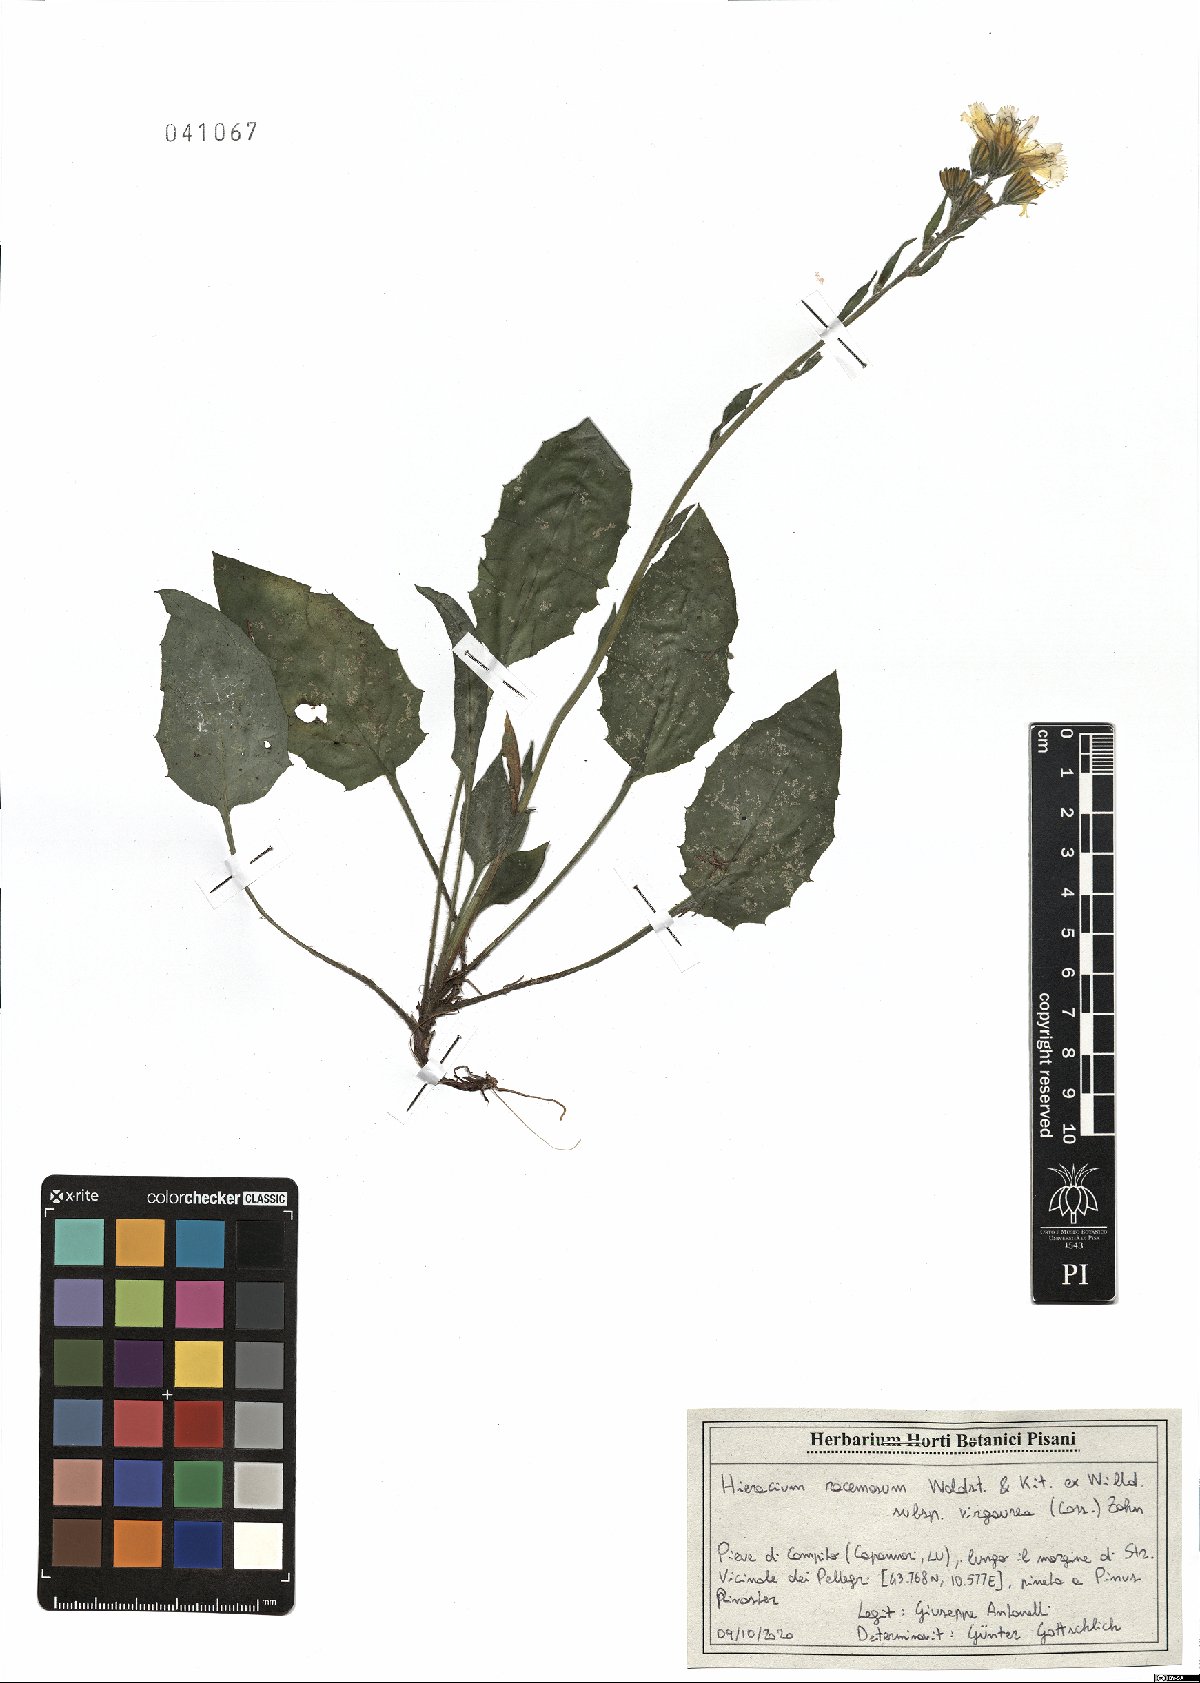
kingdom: Plantae
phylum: Tracheophyta
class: Magnoliopsida
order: Asterales
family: Asteraceae
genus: Hieracium
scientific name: Hieracium racemosum
